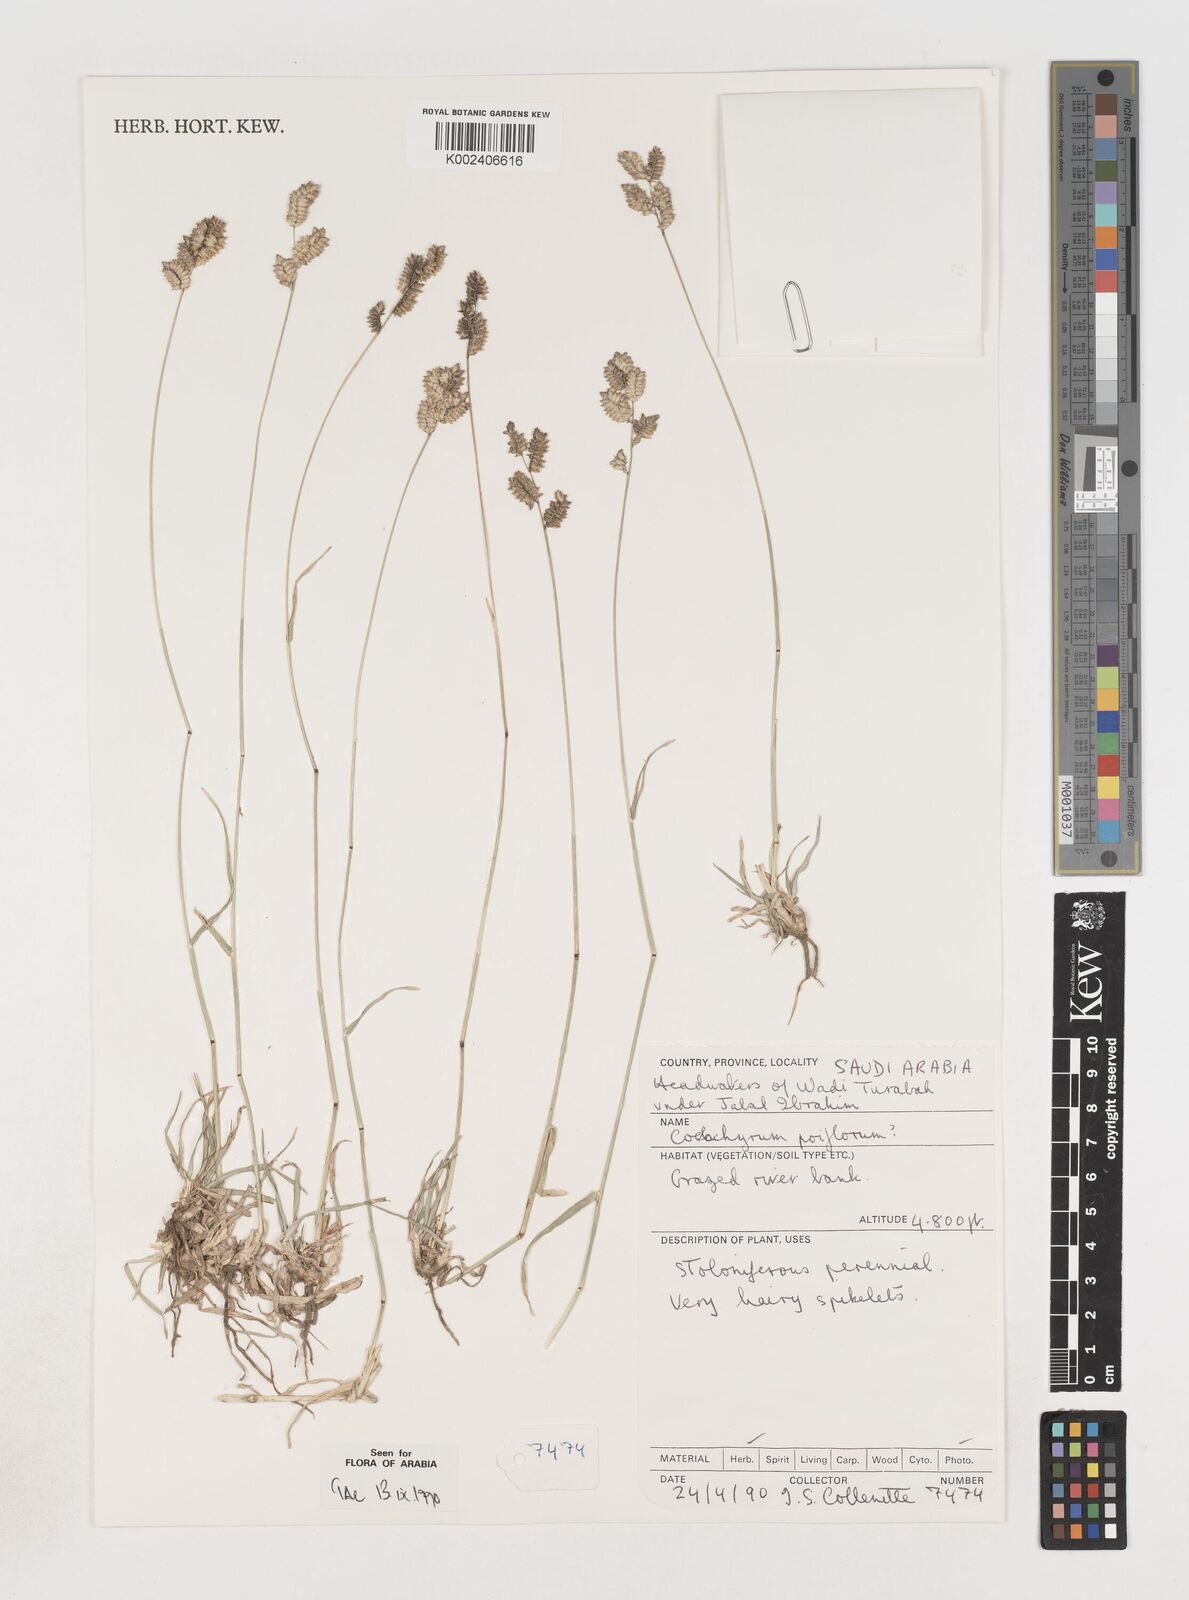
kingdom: Plantae
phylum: Tracheophyta
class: Liliopsida
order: Poales
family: Poaceae
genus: Coelachyrum
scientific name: Coelachyrum poiflorum
